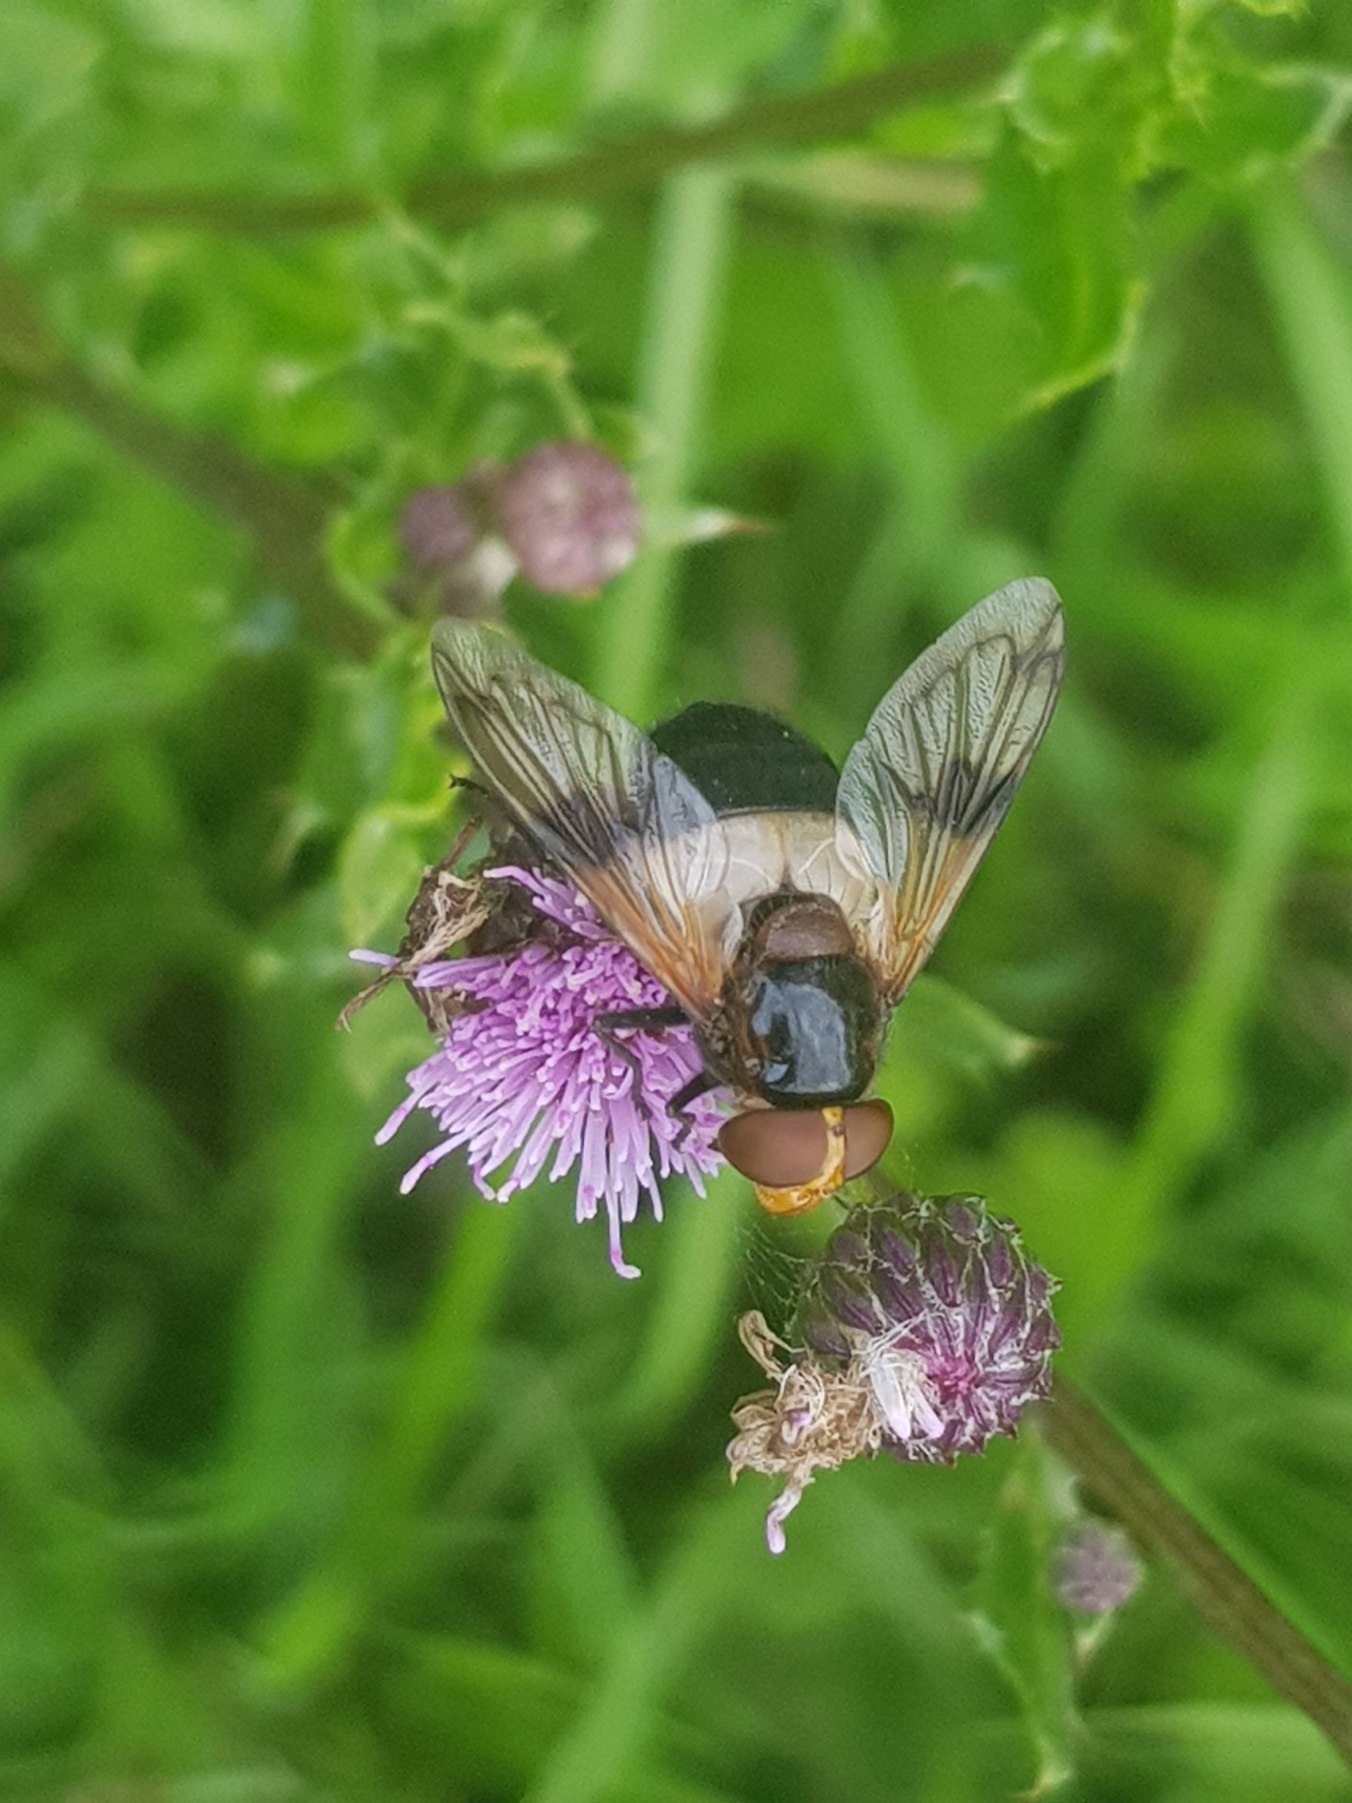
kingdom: Animalia
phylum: Arthropoda
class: Insecta
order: Diptera
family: Syrphidae
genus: Volucella
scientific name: Volucella pellucens
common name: Hvidbåndet humlesvirreflue
